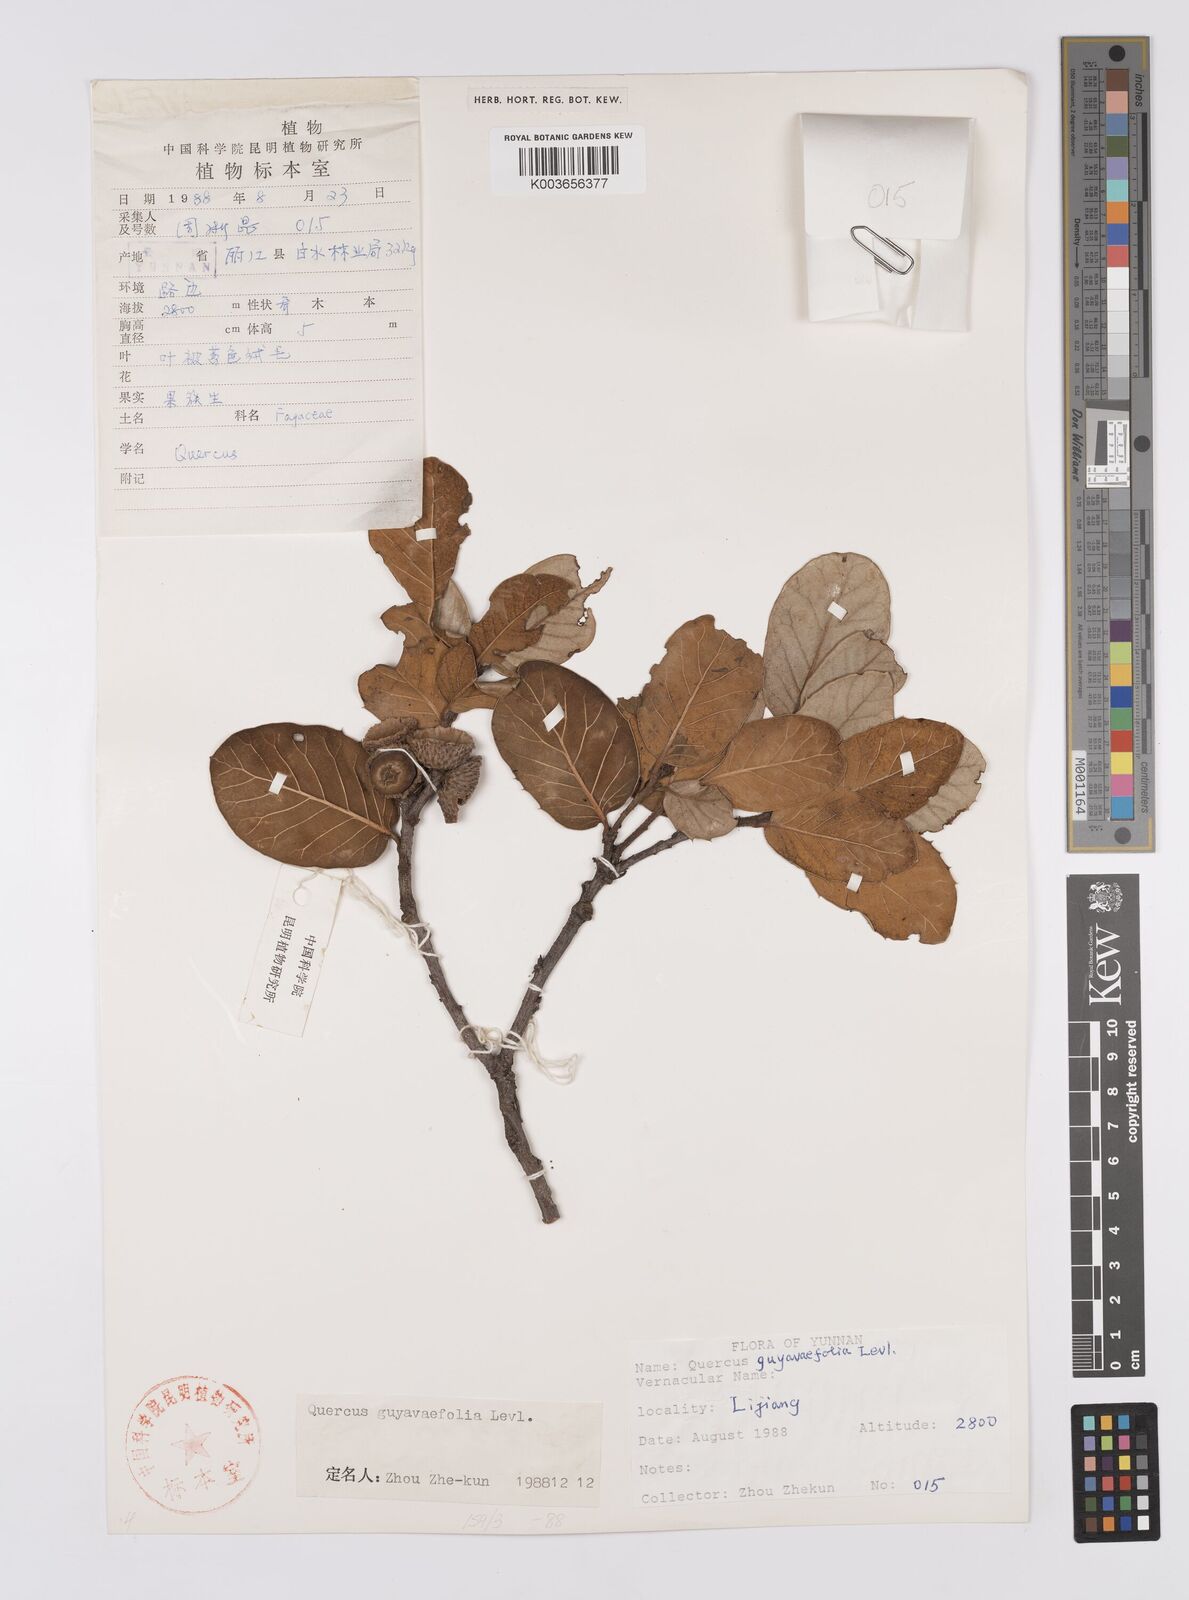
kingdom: Plantae
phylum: Tracheophyta
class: Magnoliopsida
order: Fagales
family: Fagaceae
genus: Quercus
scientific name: Quercus guyavifolia
